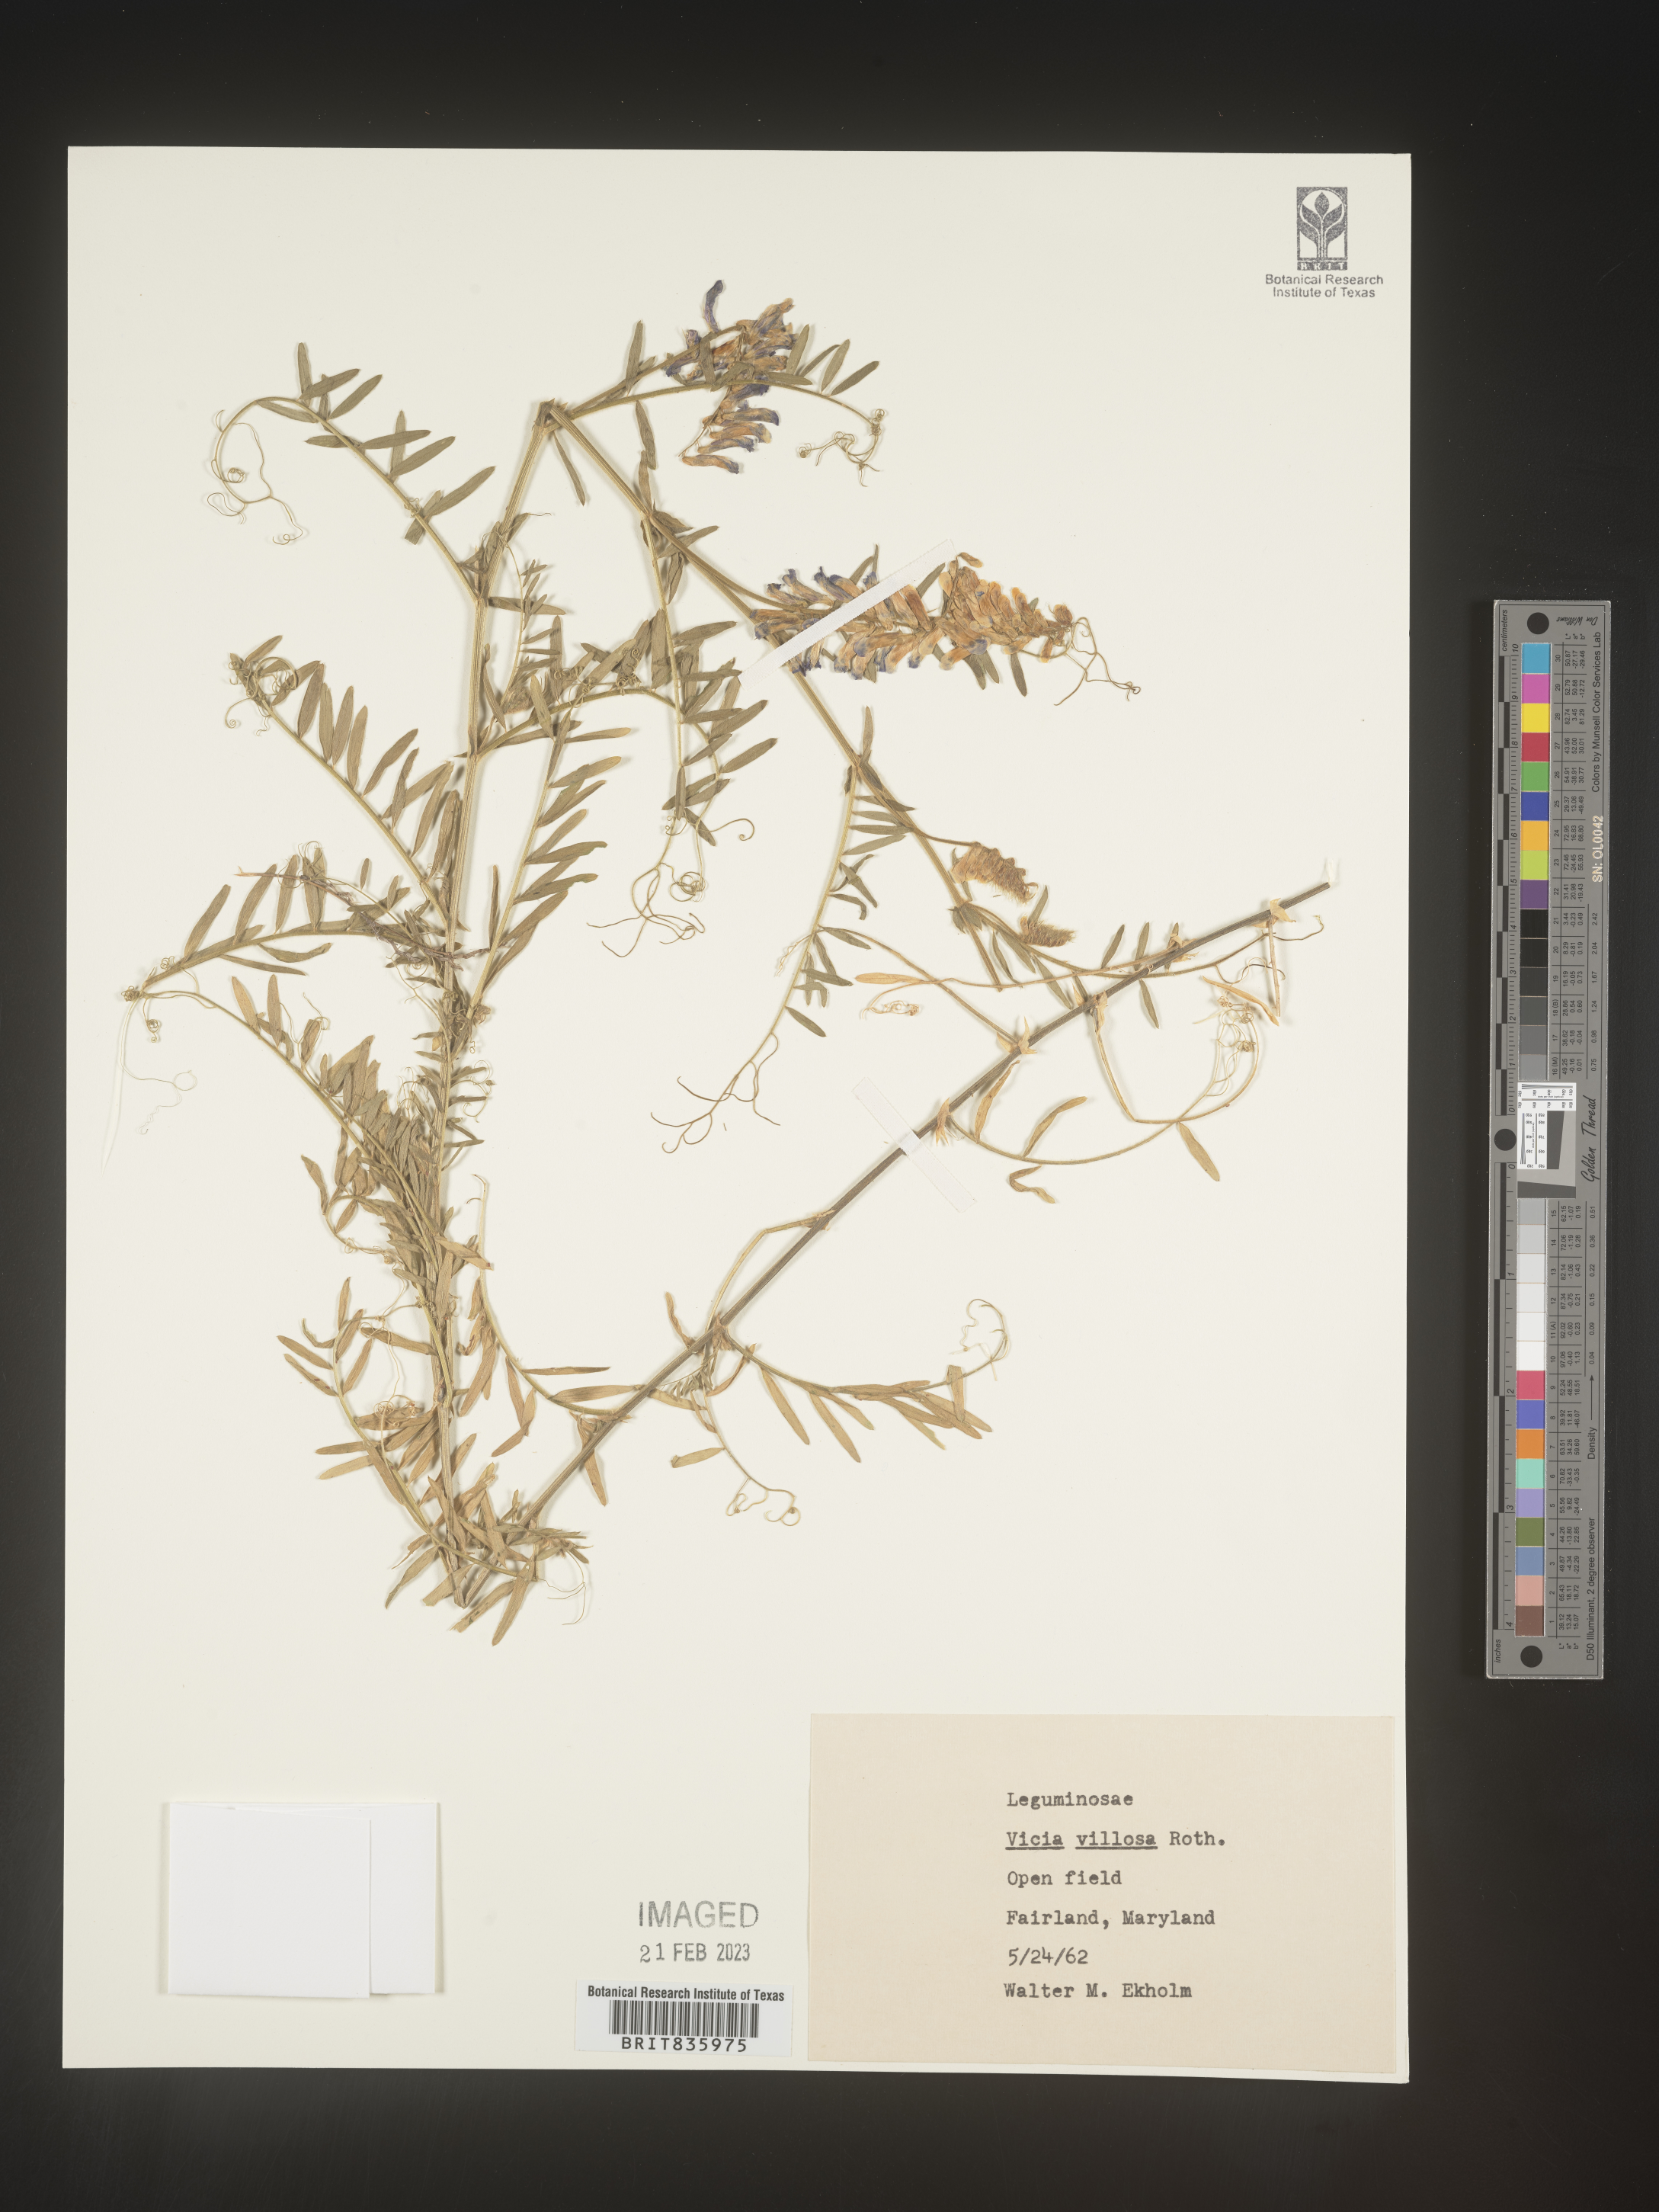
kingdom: Plantae
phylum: Tracheophyta
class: Magnoliopsida
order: Fabales
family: Fabaceae
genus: Vicia
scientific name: Vicia villosa
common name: Fodder vetch
